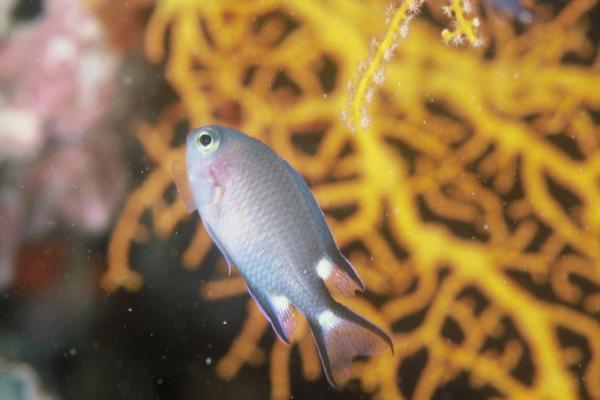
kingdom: Animalia
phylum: Chordata
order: Perciformes
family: Pomacentridae
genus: Chromis
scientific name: Chromis trialpha
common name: Trispot chromis
